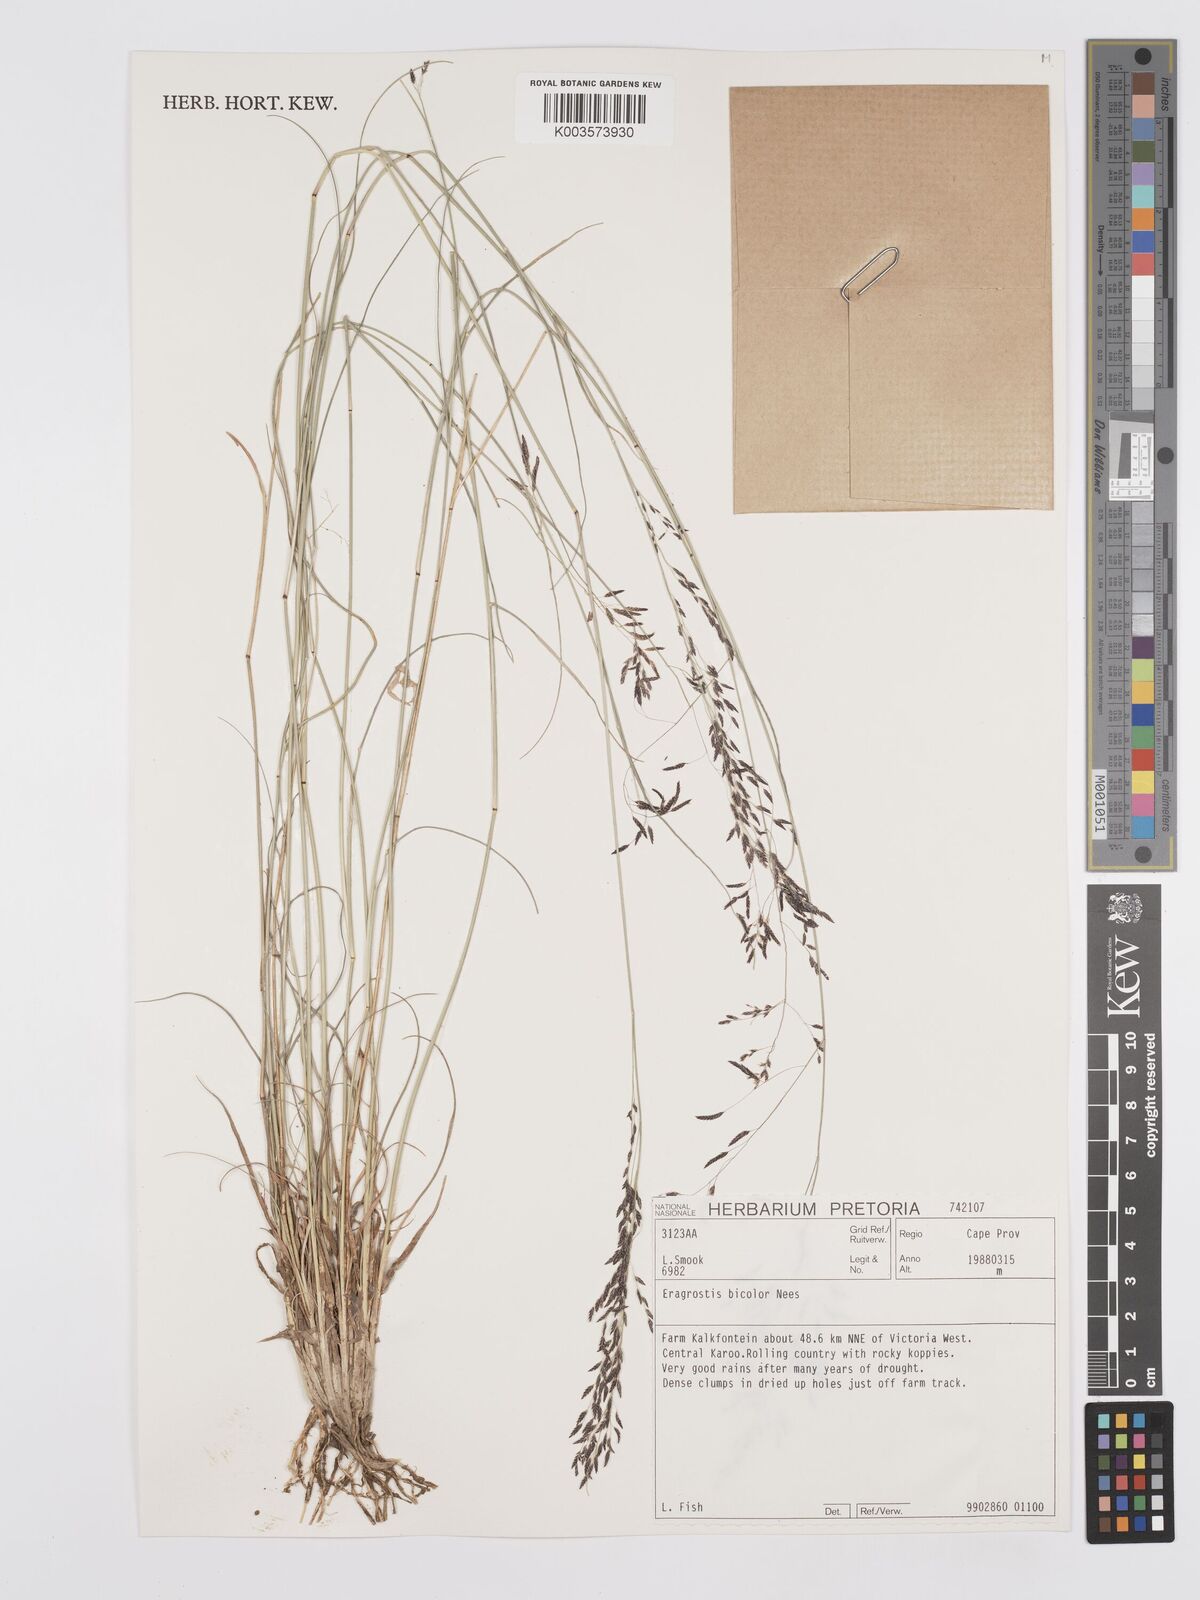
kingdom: Plantae
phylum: Tracheophyta
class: Liliopsida
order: Poales
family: Poaceae
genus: Eragrostis
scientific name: Eragrostis
